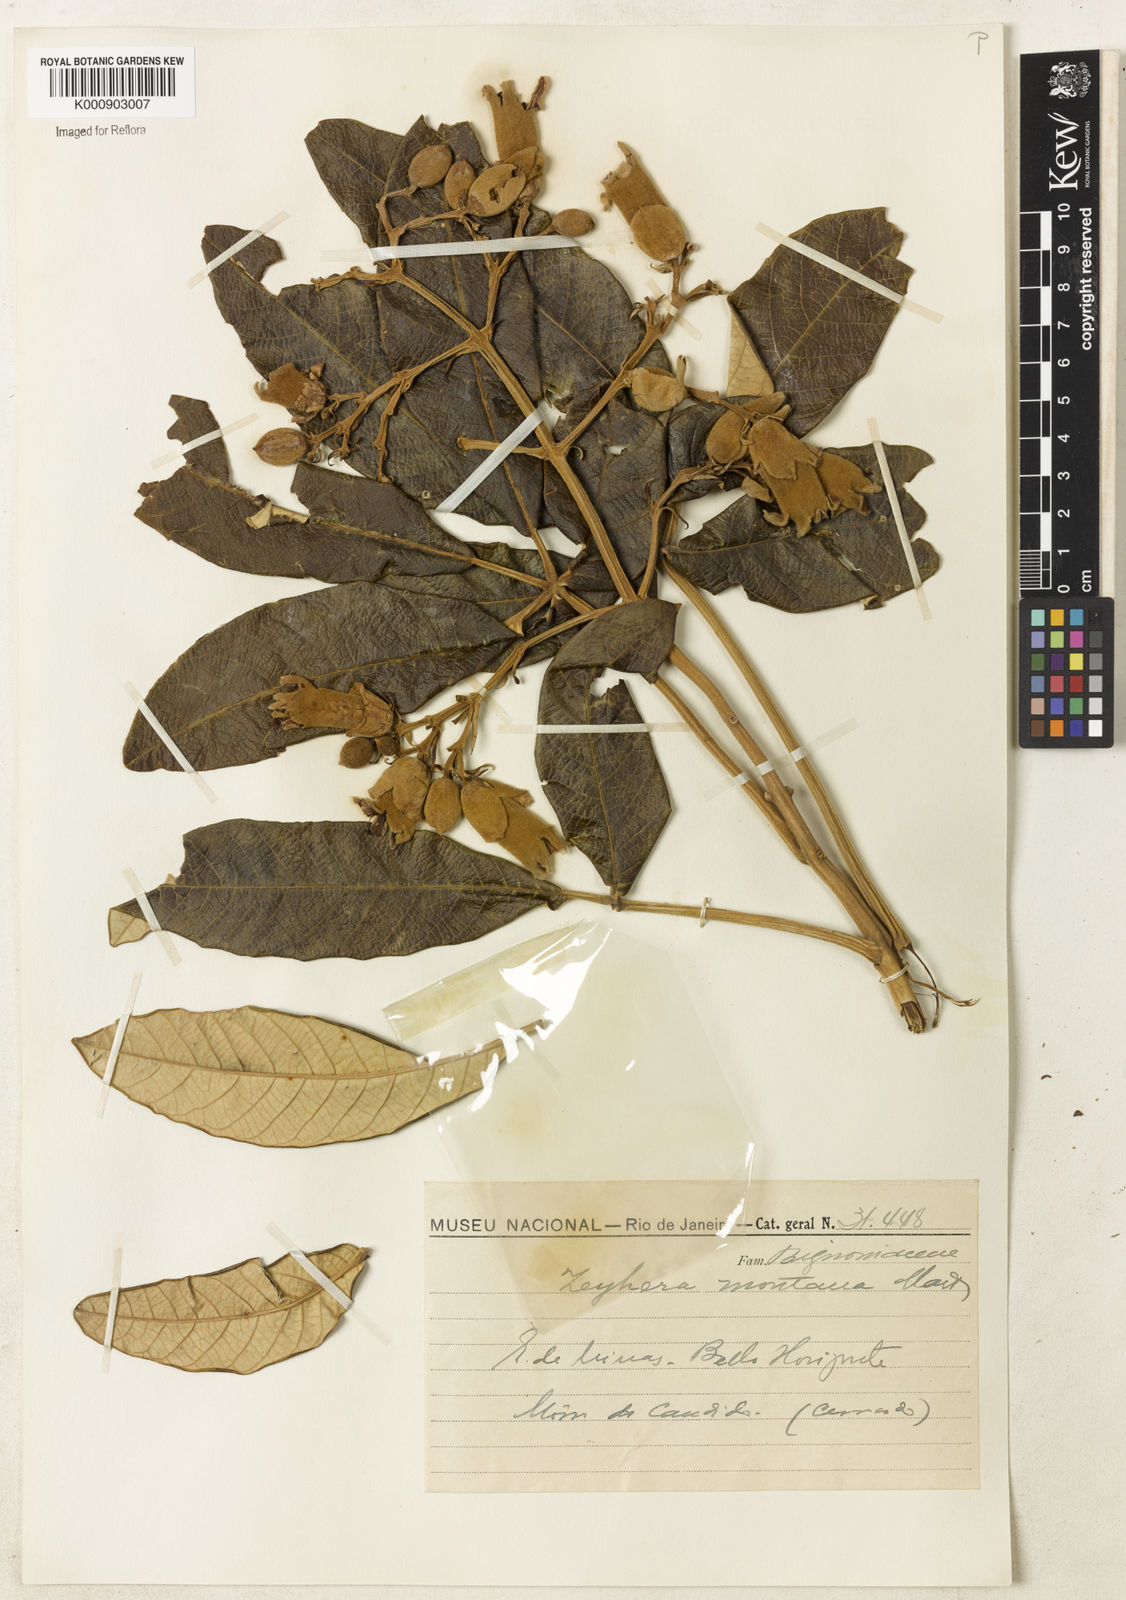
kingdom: Plantae
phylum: Tracheophyta
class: Magnoliopsida
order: Lamiales
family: Bignoniaceae
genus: Zeyheria
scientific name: Zeyheria montana
